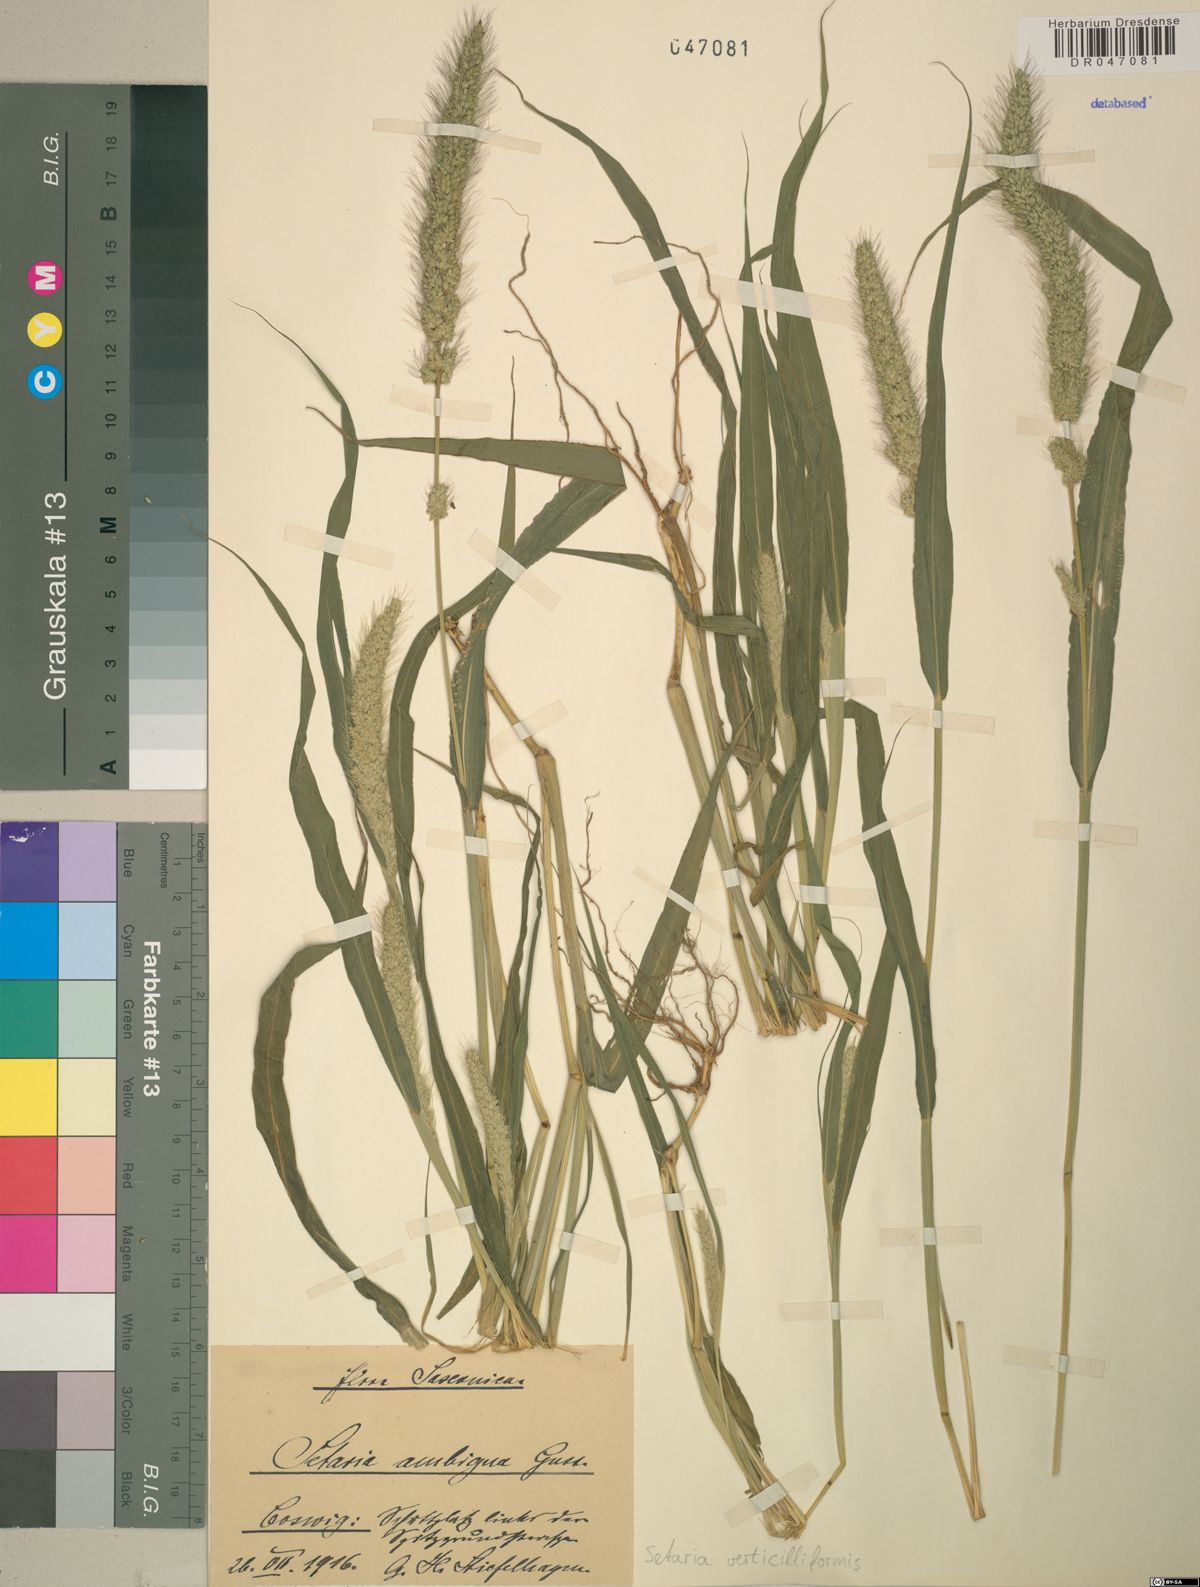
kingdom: Plantae
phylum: Tracheophyta
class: Liliopsida
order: Poales
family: Poaceae
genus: Setaria
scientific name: Setaria verticillata
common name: Hooked bristlegrass
